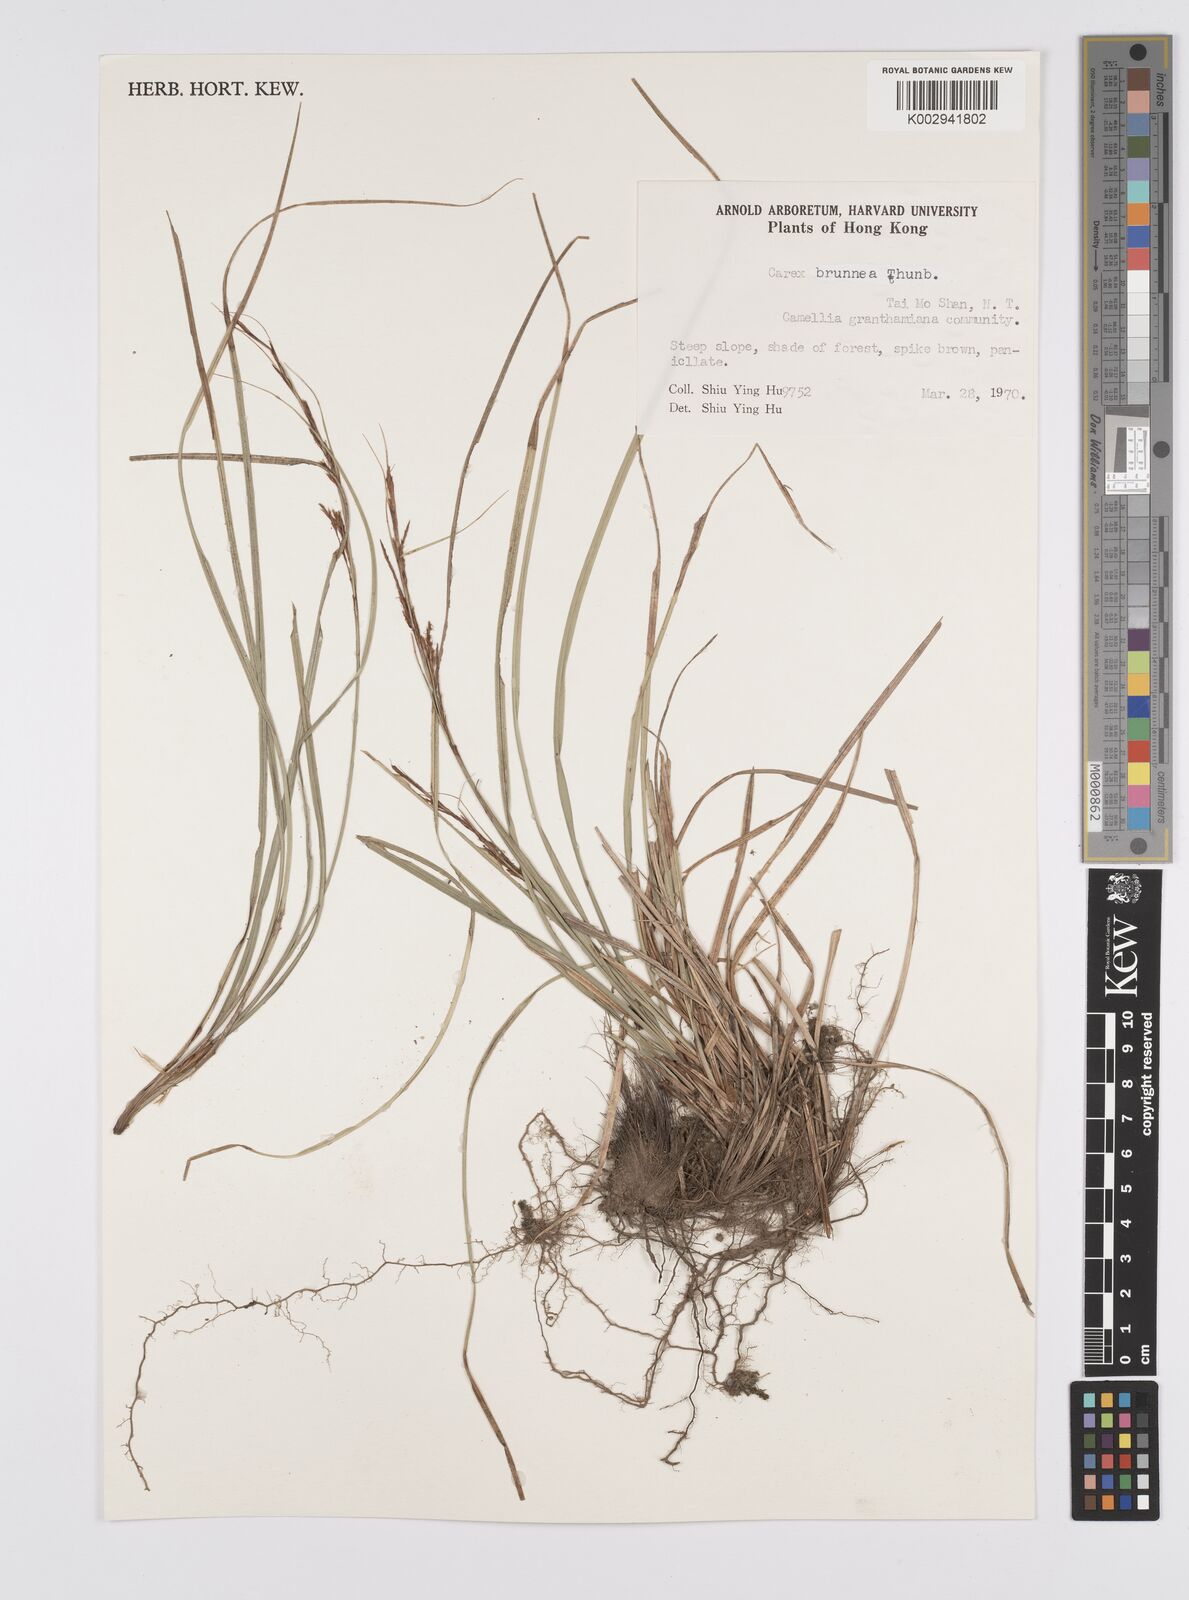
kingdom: Plantae
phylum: Tracheophyta
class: Liliopsida
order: Poales
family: Cyperaceae
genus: Carex
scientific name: Carex brunnea
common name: Greater brown sedge
